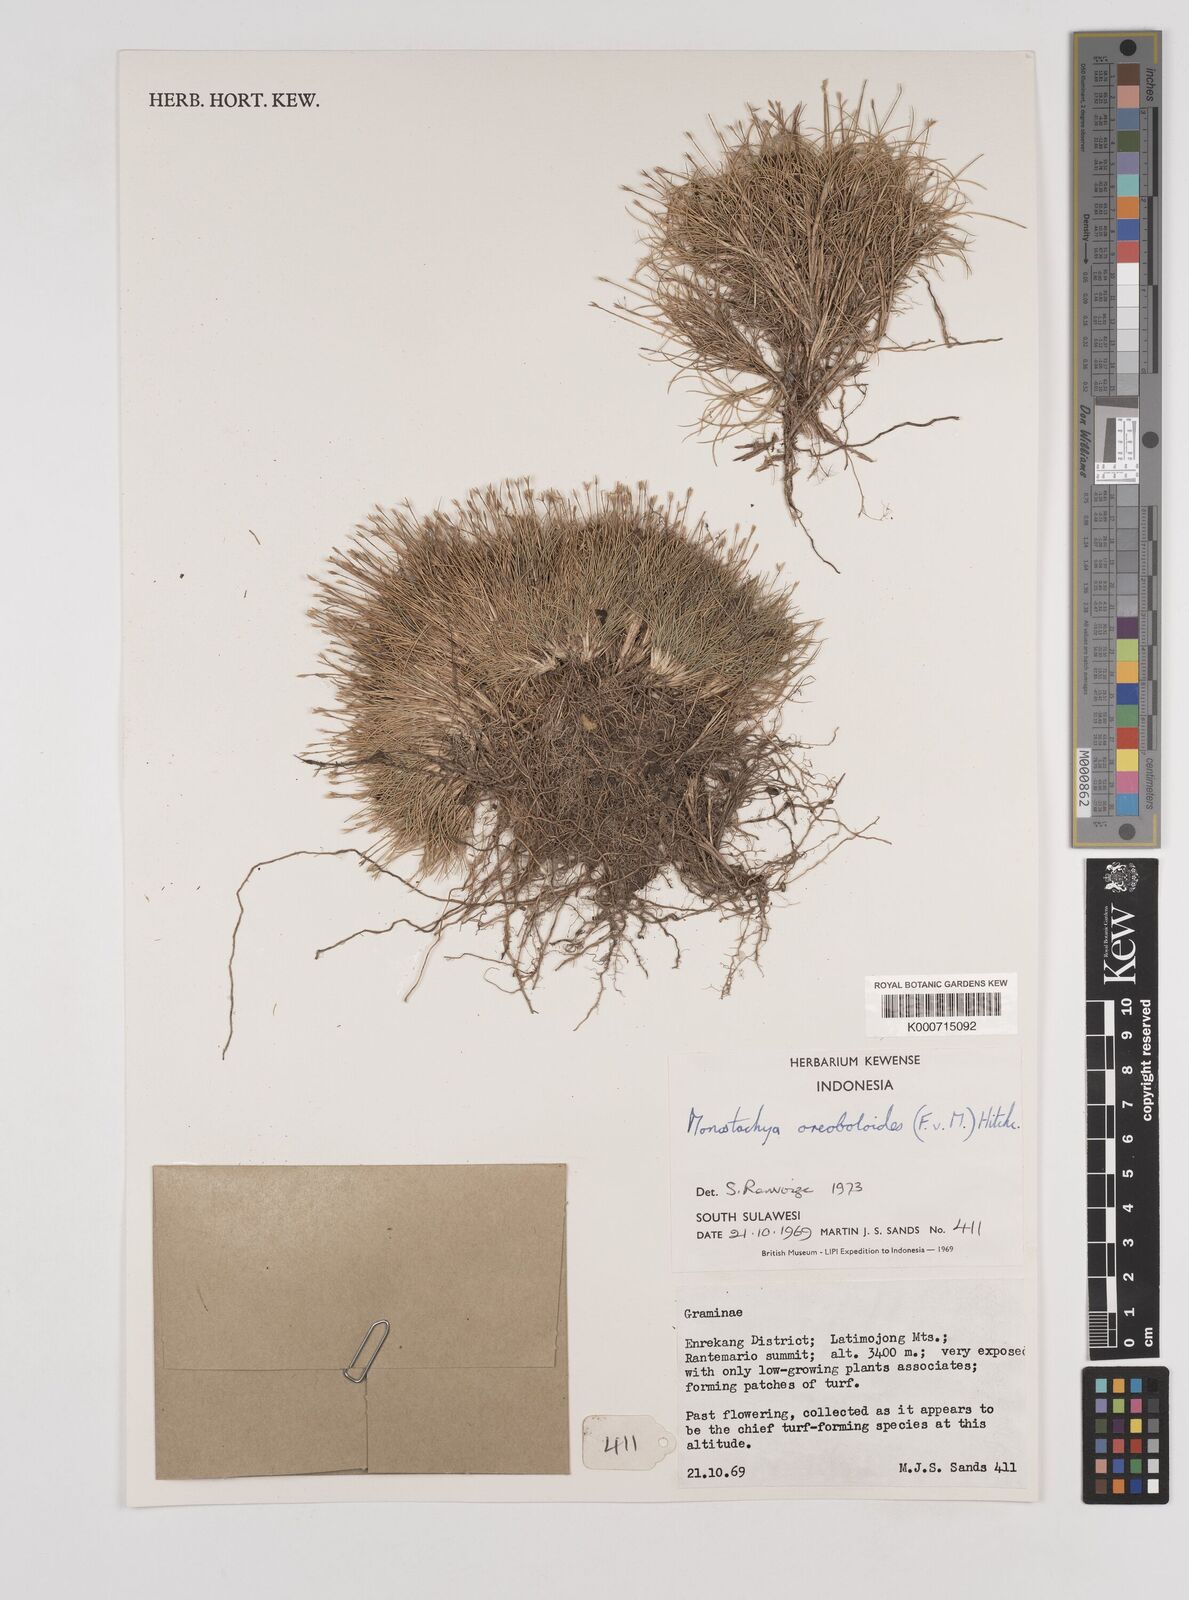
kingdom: Plantae
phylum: Tracheophyta
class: Liliopsida
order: Poales
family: Poaceae
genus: Rytidosperma
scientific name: Rytidosperma oreoboloides
